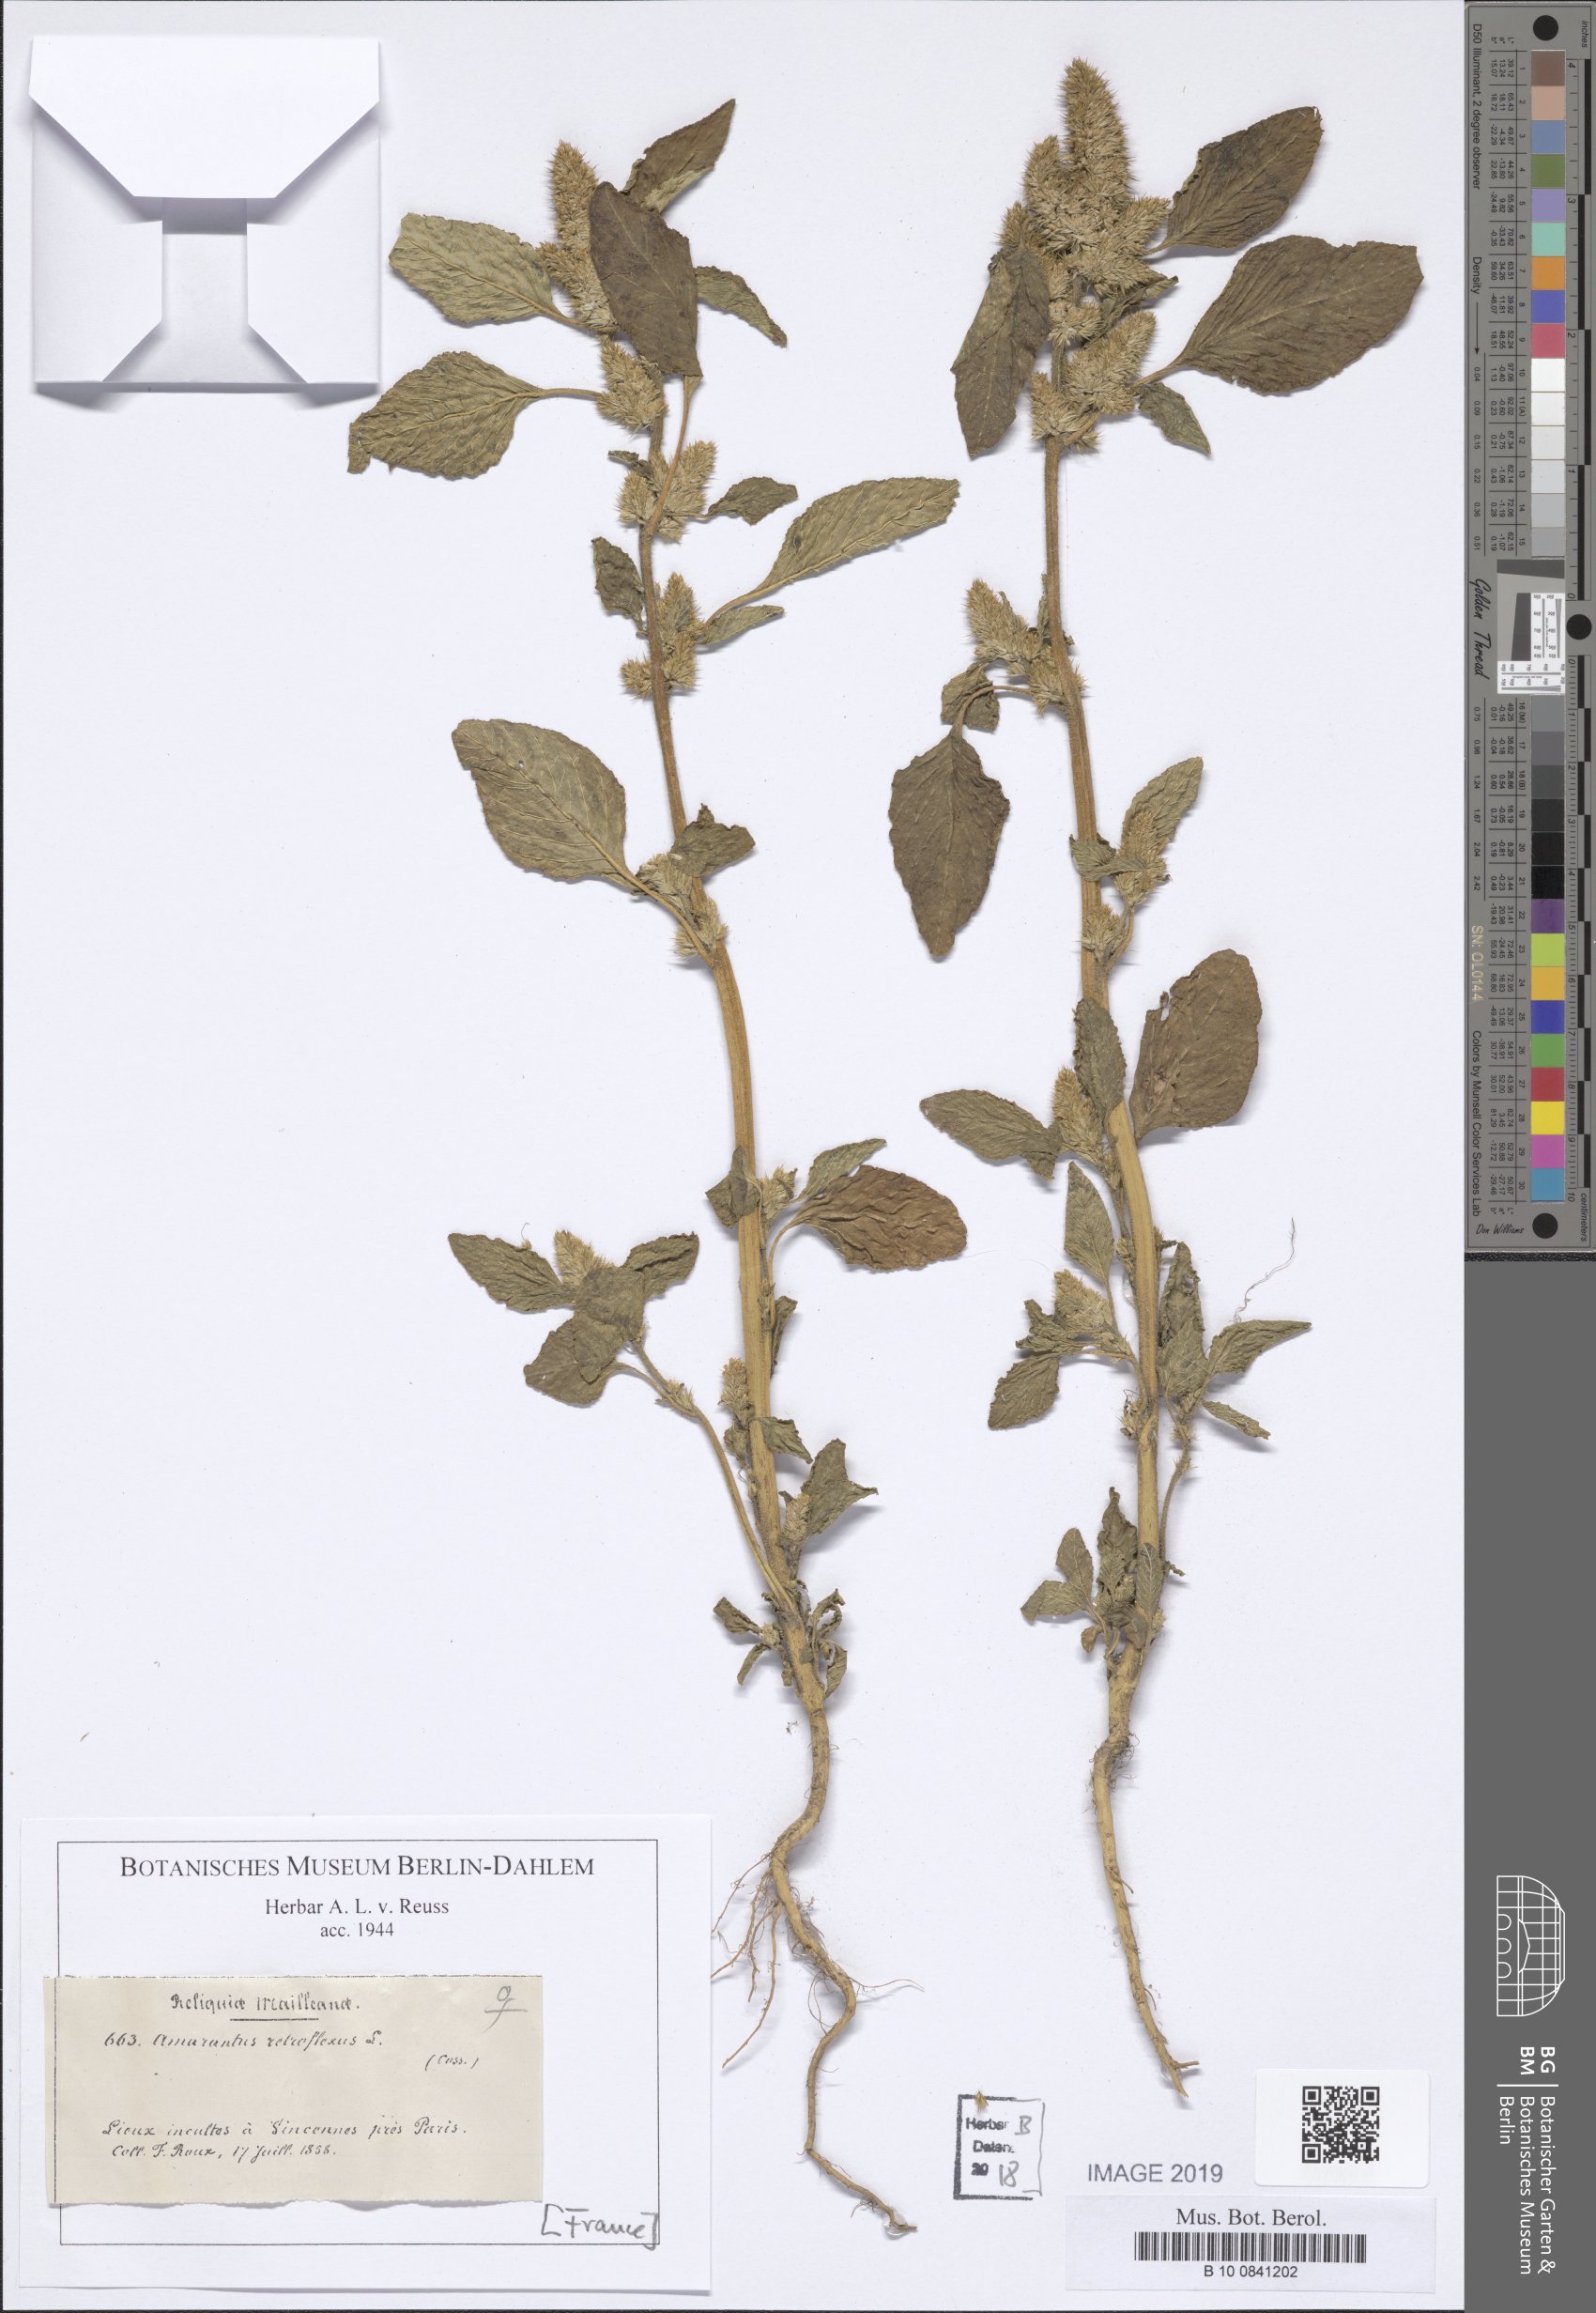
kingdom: Plantae
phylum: Tracheophyta
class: Magnoliopsida
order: Caryophyllales
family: Amaranthaceae
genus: Amaranthus
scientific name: Amaranthus retroflexus
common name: Redroot amaranth
